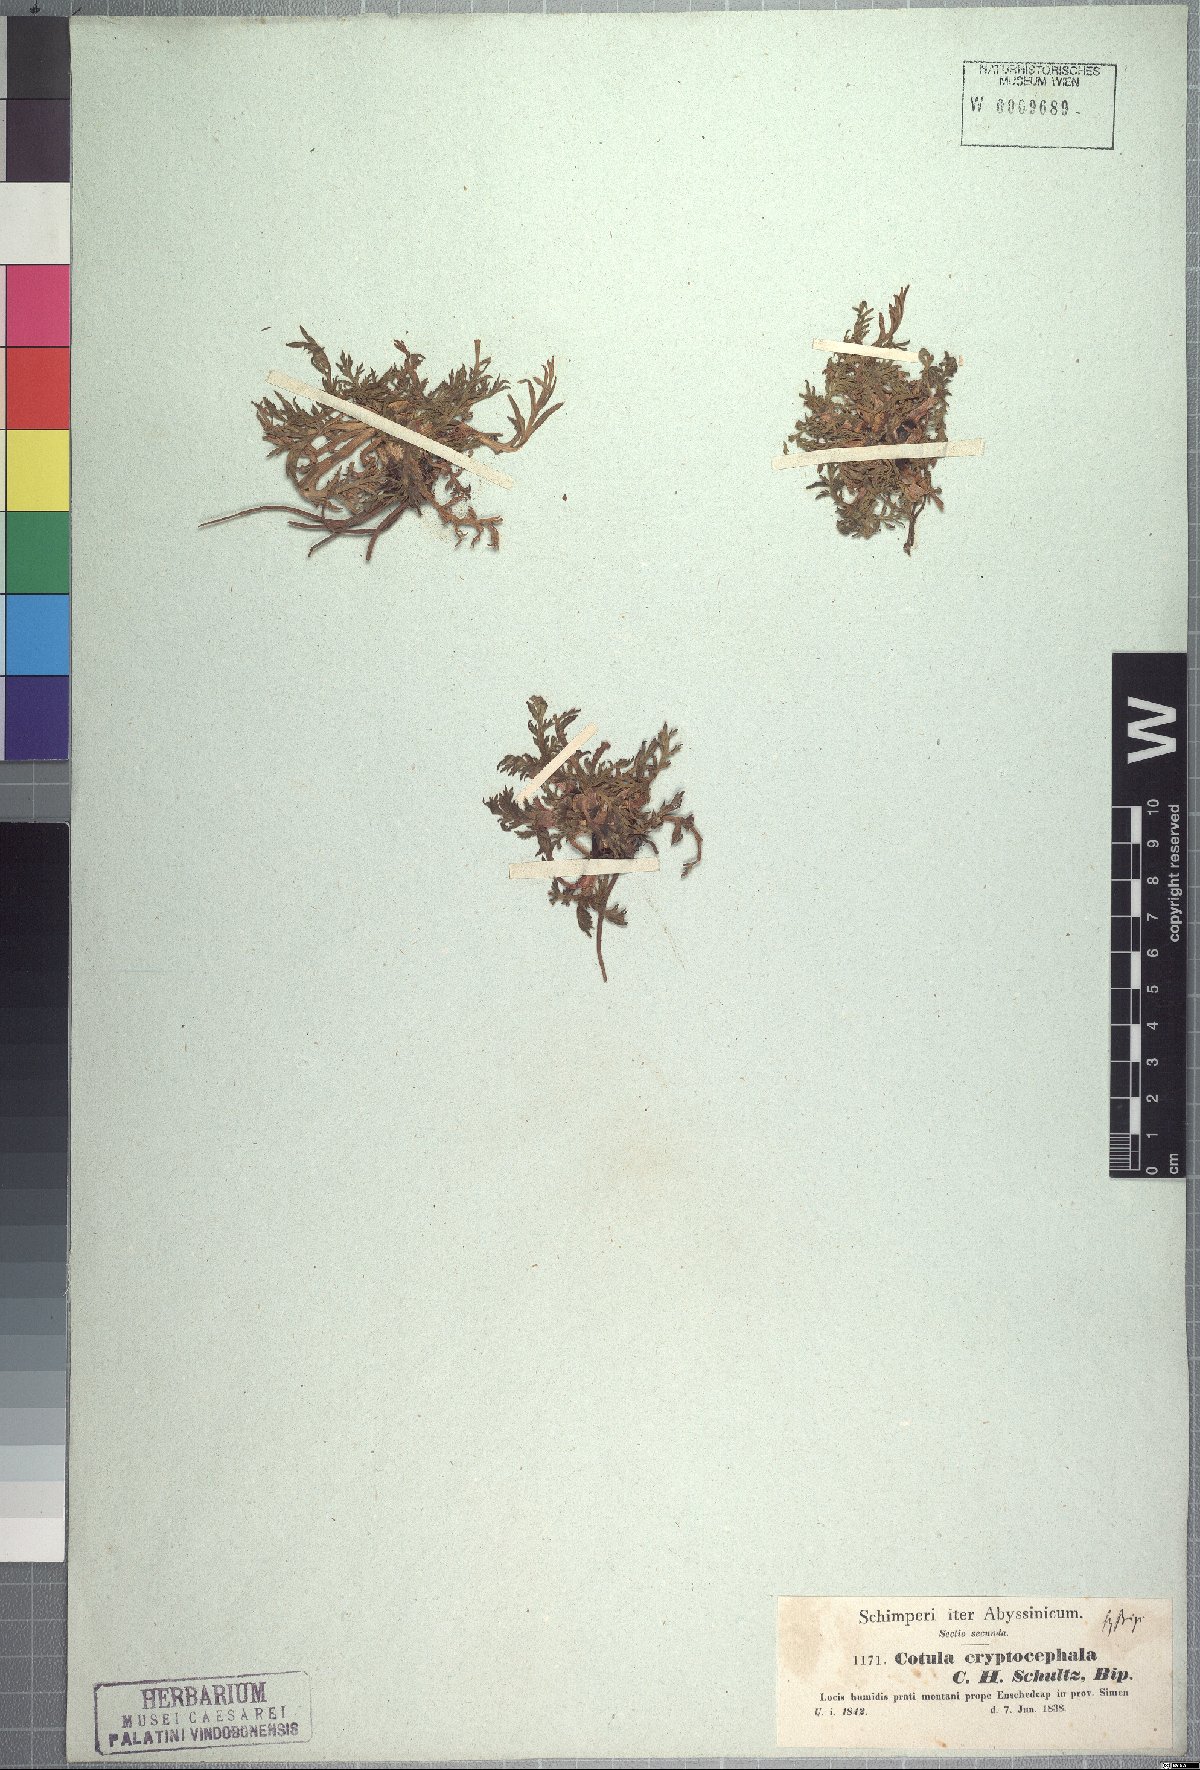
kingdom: Plantae
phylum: Tracheophyta
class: Magnoliopsida
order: Asterales
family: Asteraceae
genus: Cotula
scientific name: Cotula cryptocephala
